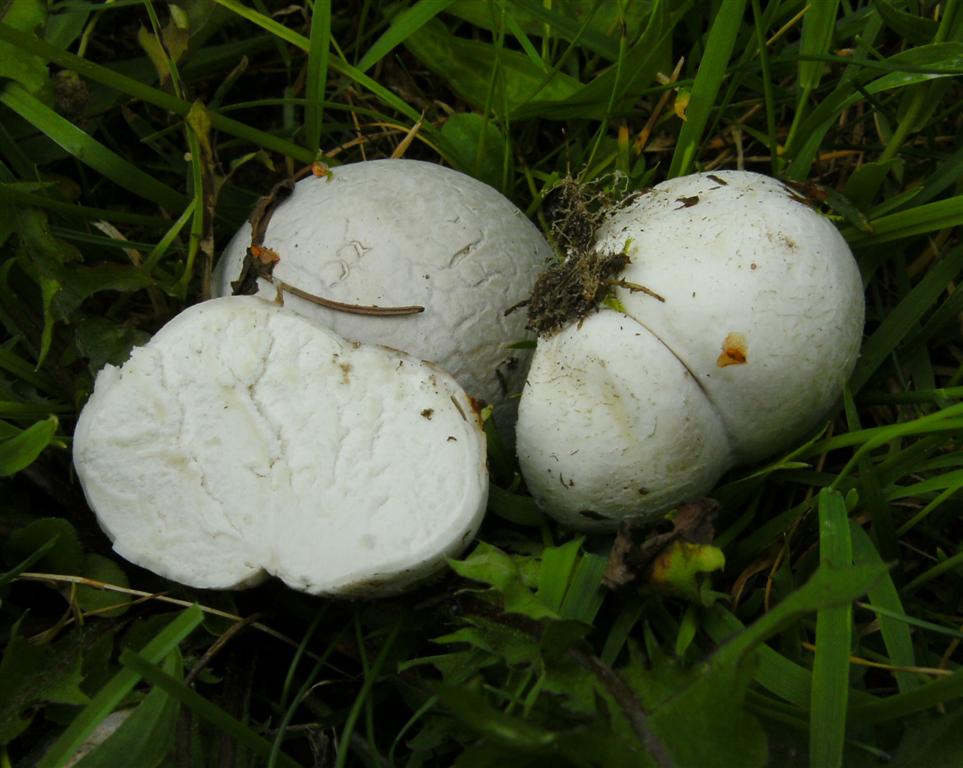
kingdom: Fungi
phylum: Basidiomycota
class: Agaricomycetes
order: Agaricales
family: Lycoperdaceae
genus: Bovista
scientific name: Bovista nigrescens
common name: sortagtig bovist
